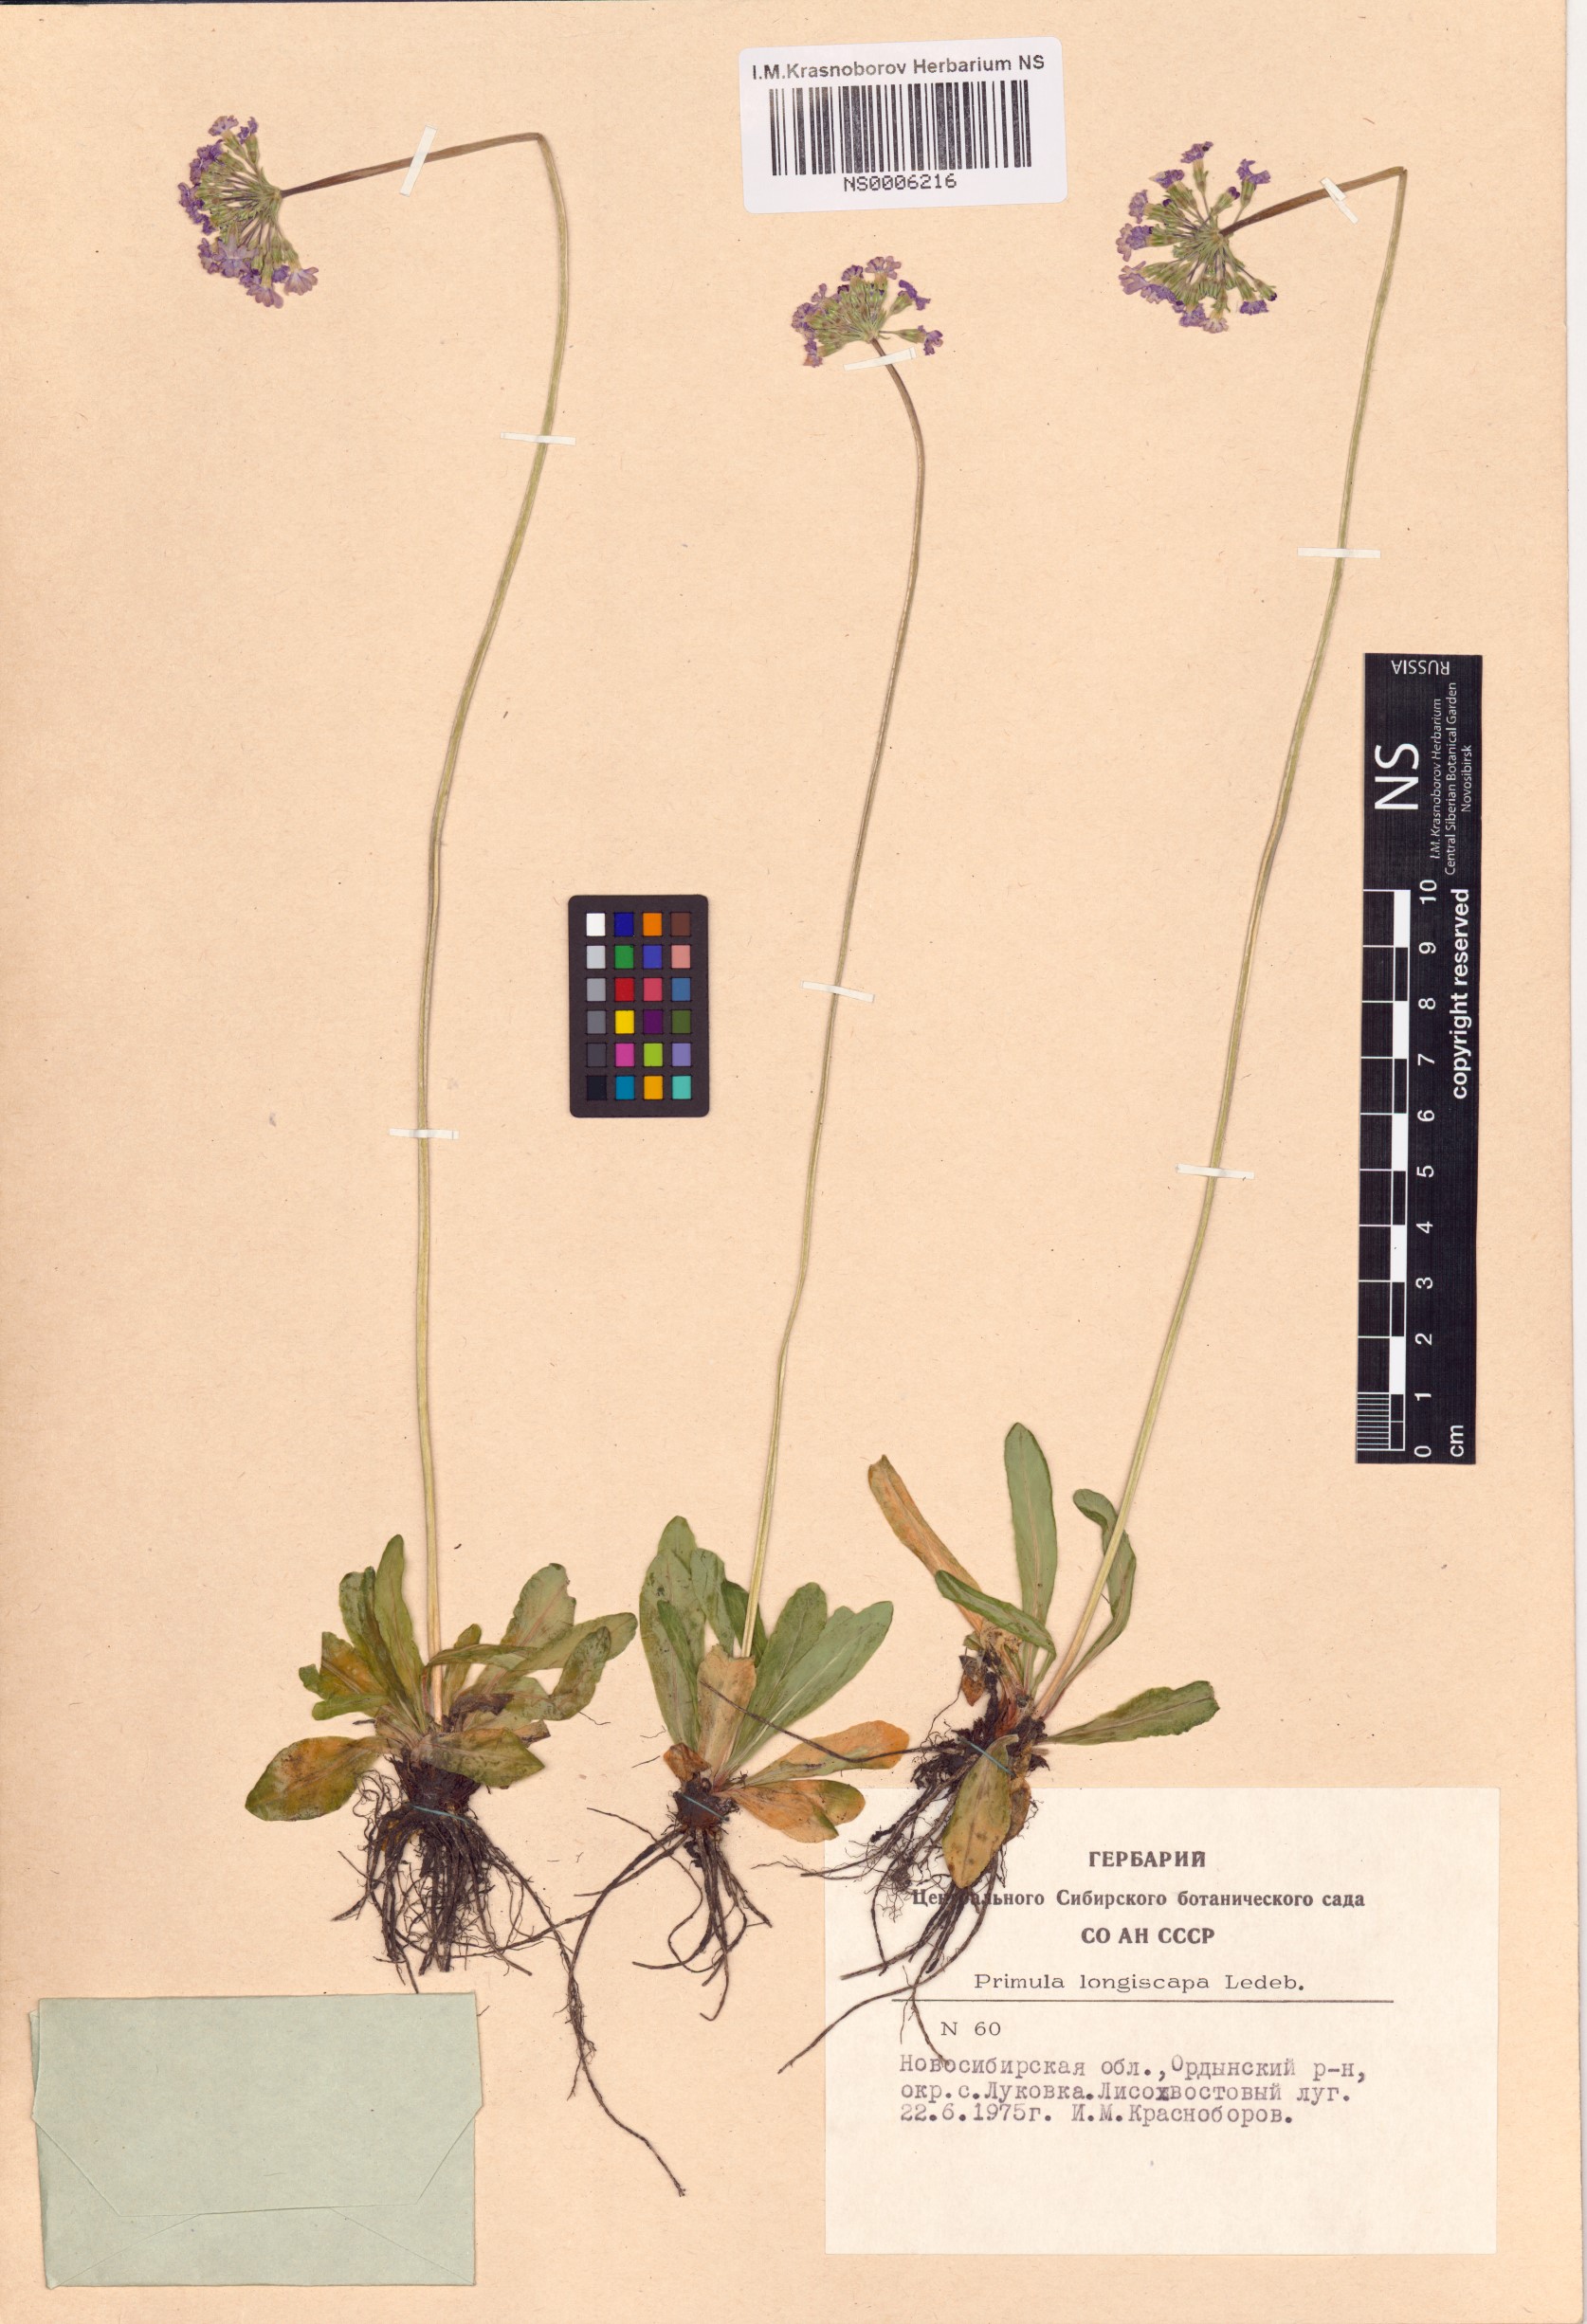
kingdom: Plantae
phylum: Tracheophyta
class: Magnoliopsida
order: Ericales
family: Primulaceae
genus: Primula
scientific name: Primula longiscapa
